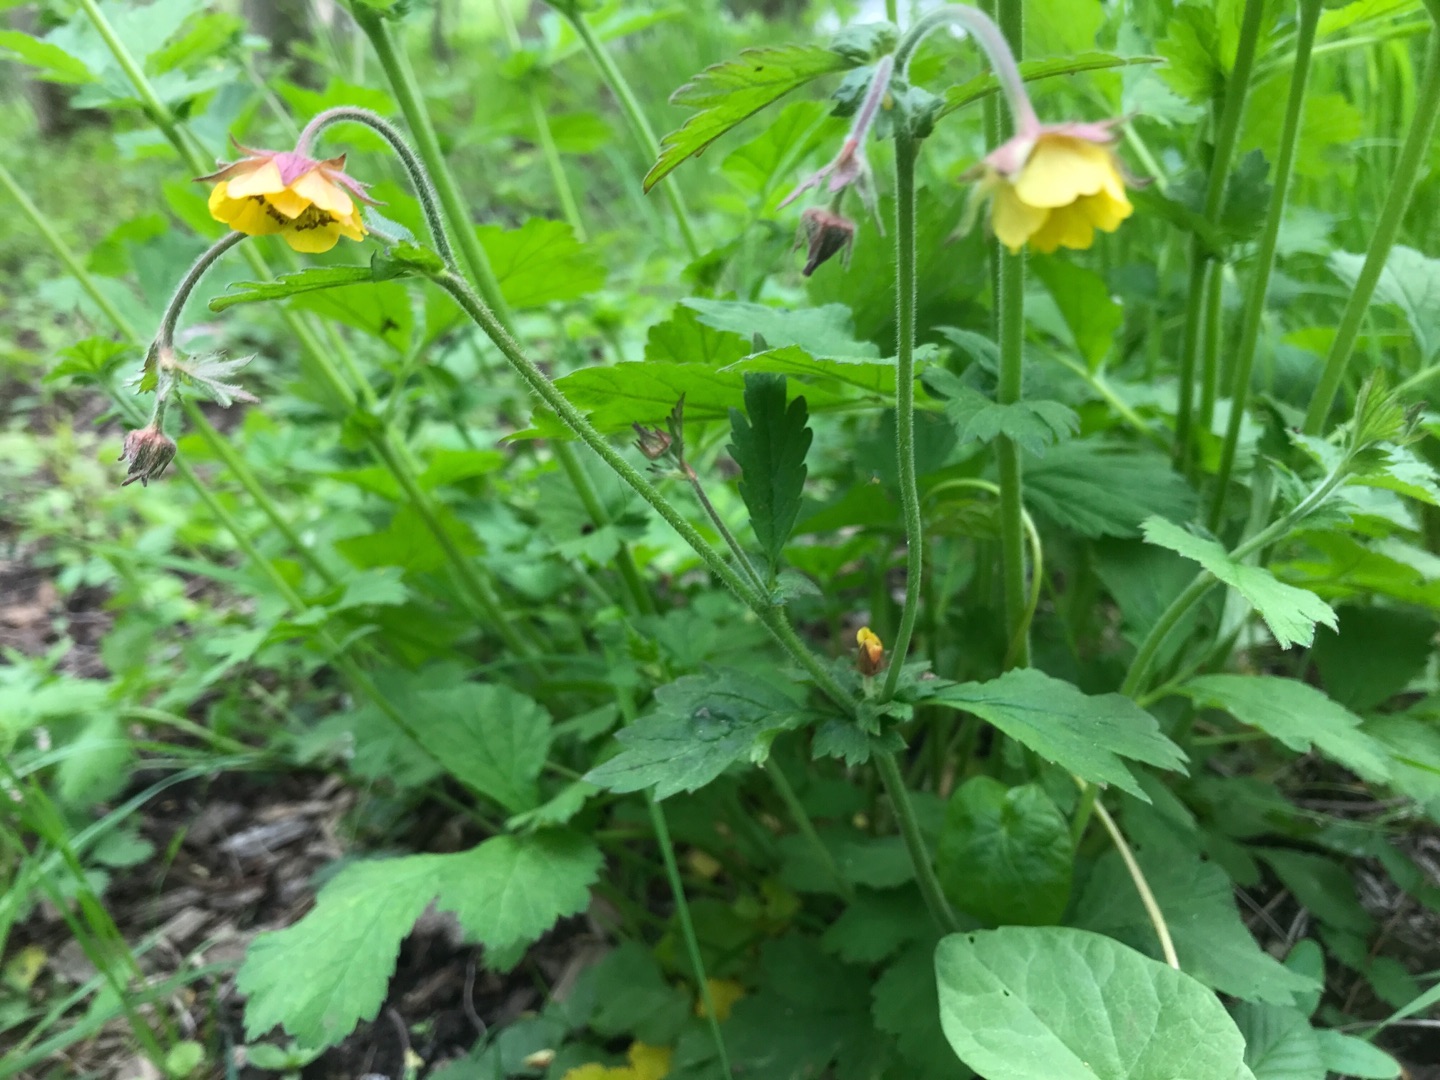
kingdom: Plantae
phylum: Tracheophyta
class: Magnoliopsida
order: Rosales
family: Rosaceae
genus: Geum
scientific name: Geum
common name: Høj nellikerod
